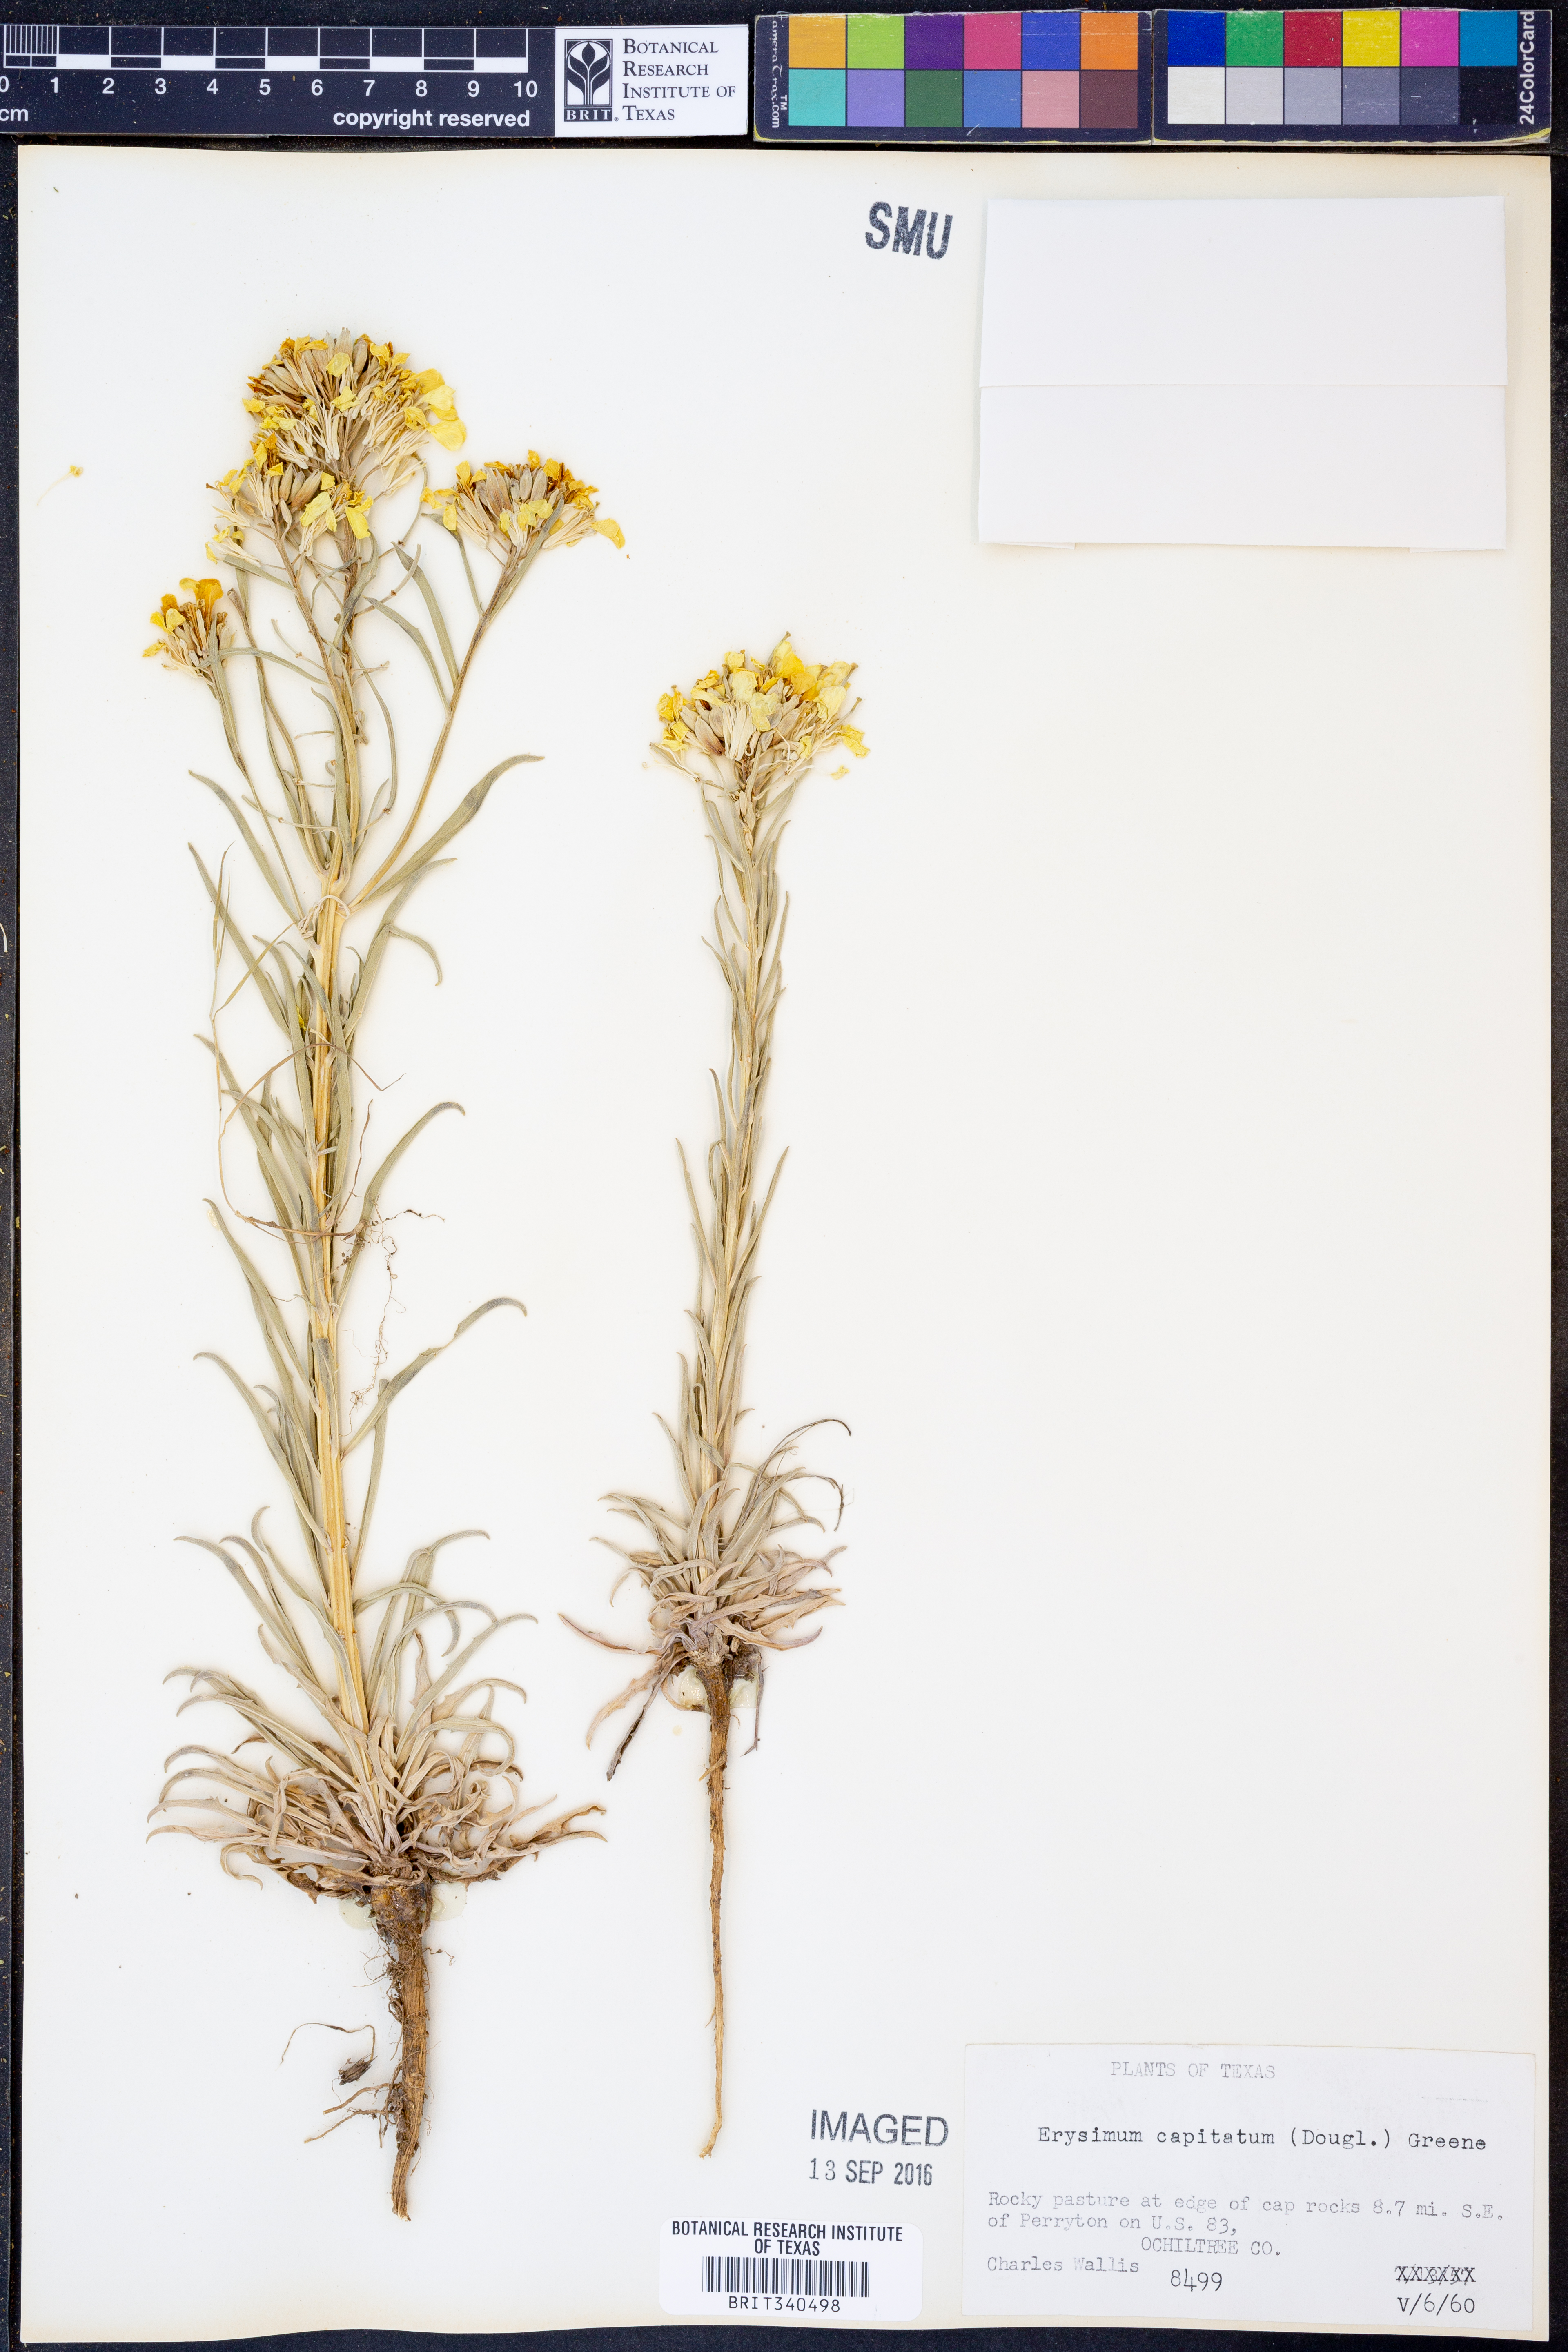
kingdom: Plantae
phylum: Tracheophyta
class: Magnoliopsida
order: Brassicales
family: Brassicaceae
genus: Erysimum
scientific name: Erysimum capitatum
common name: Western wallflower
